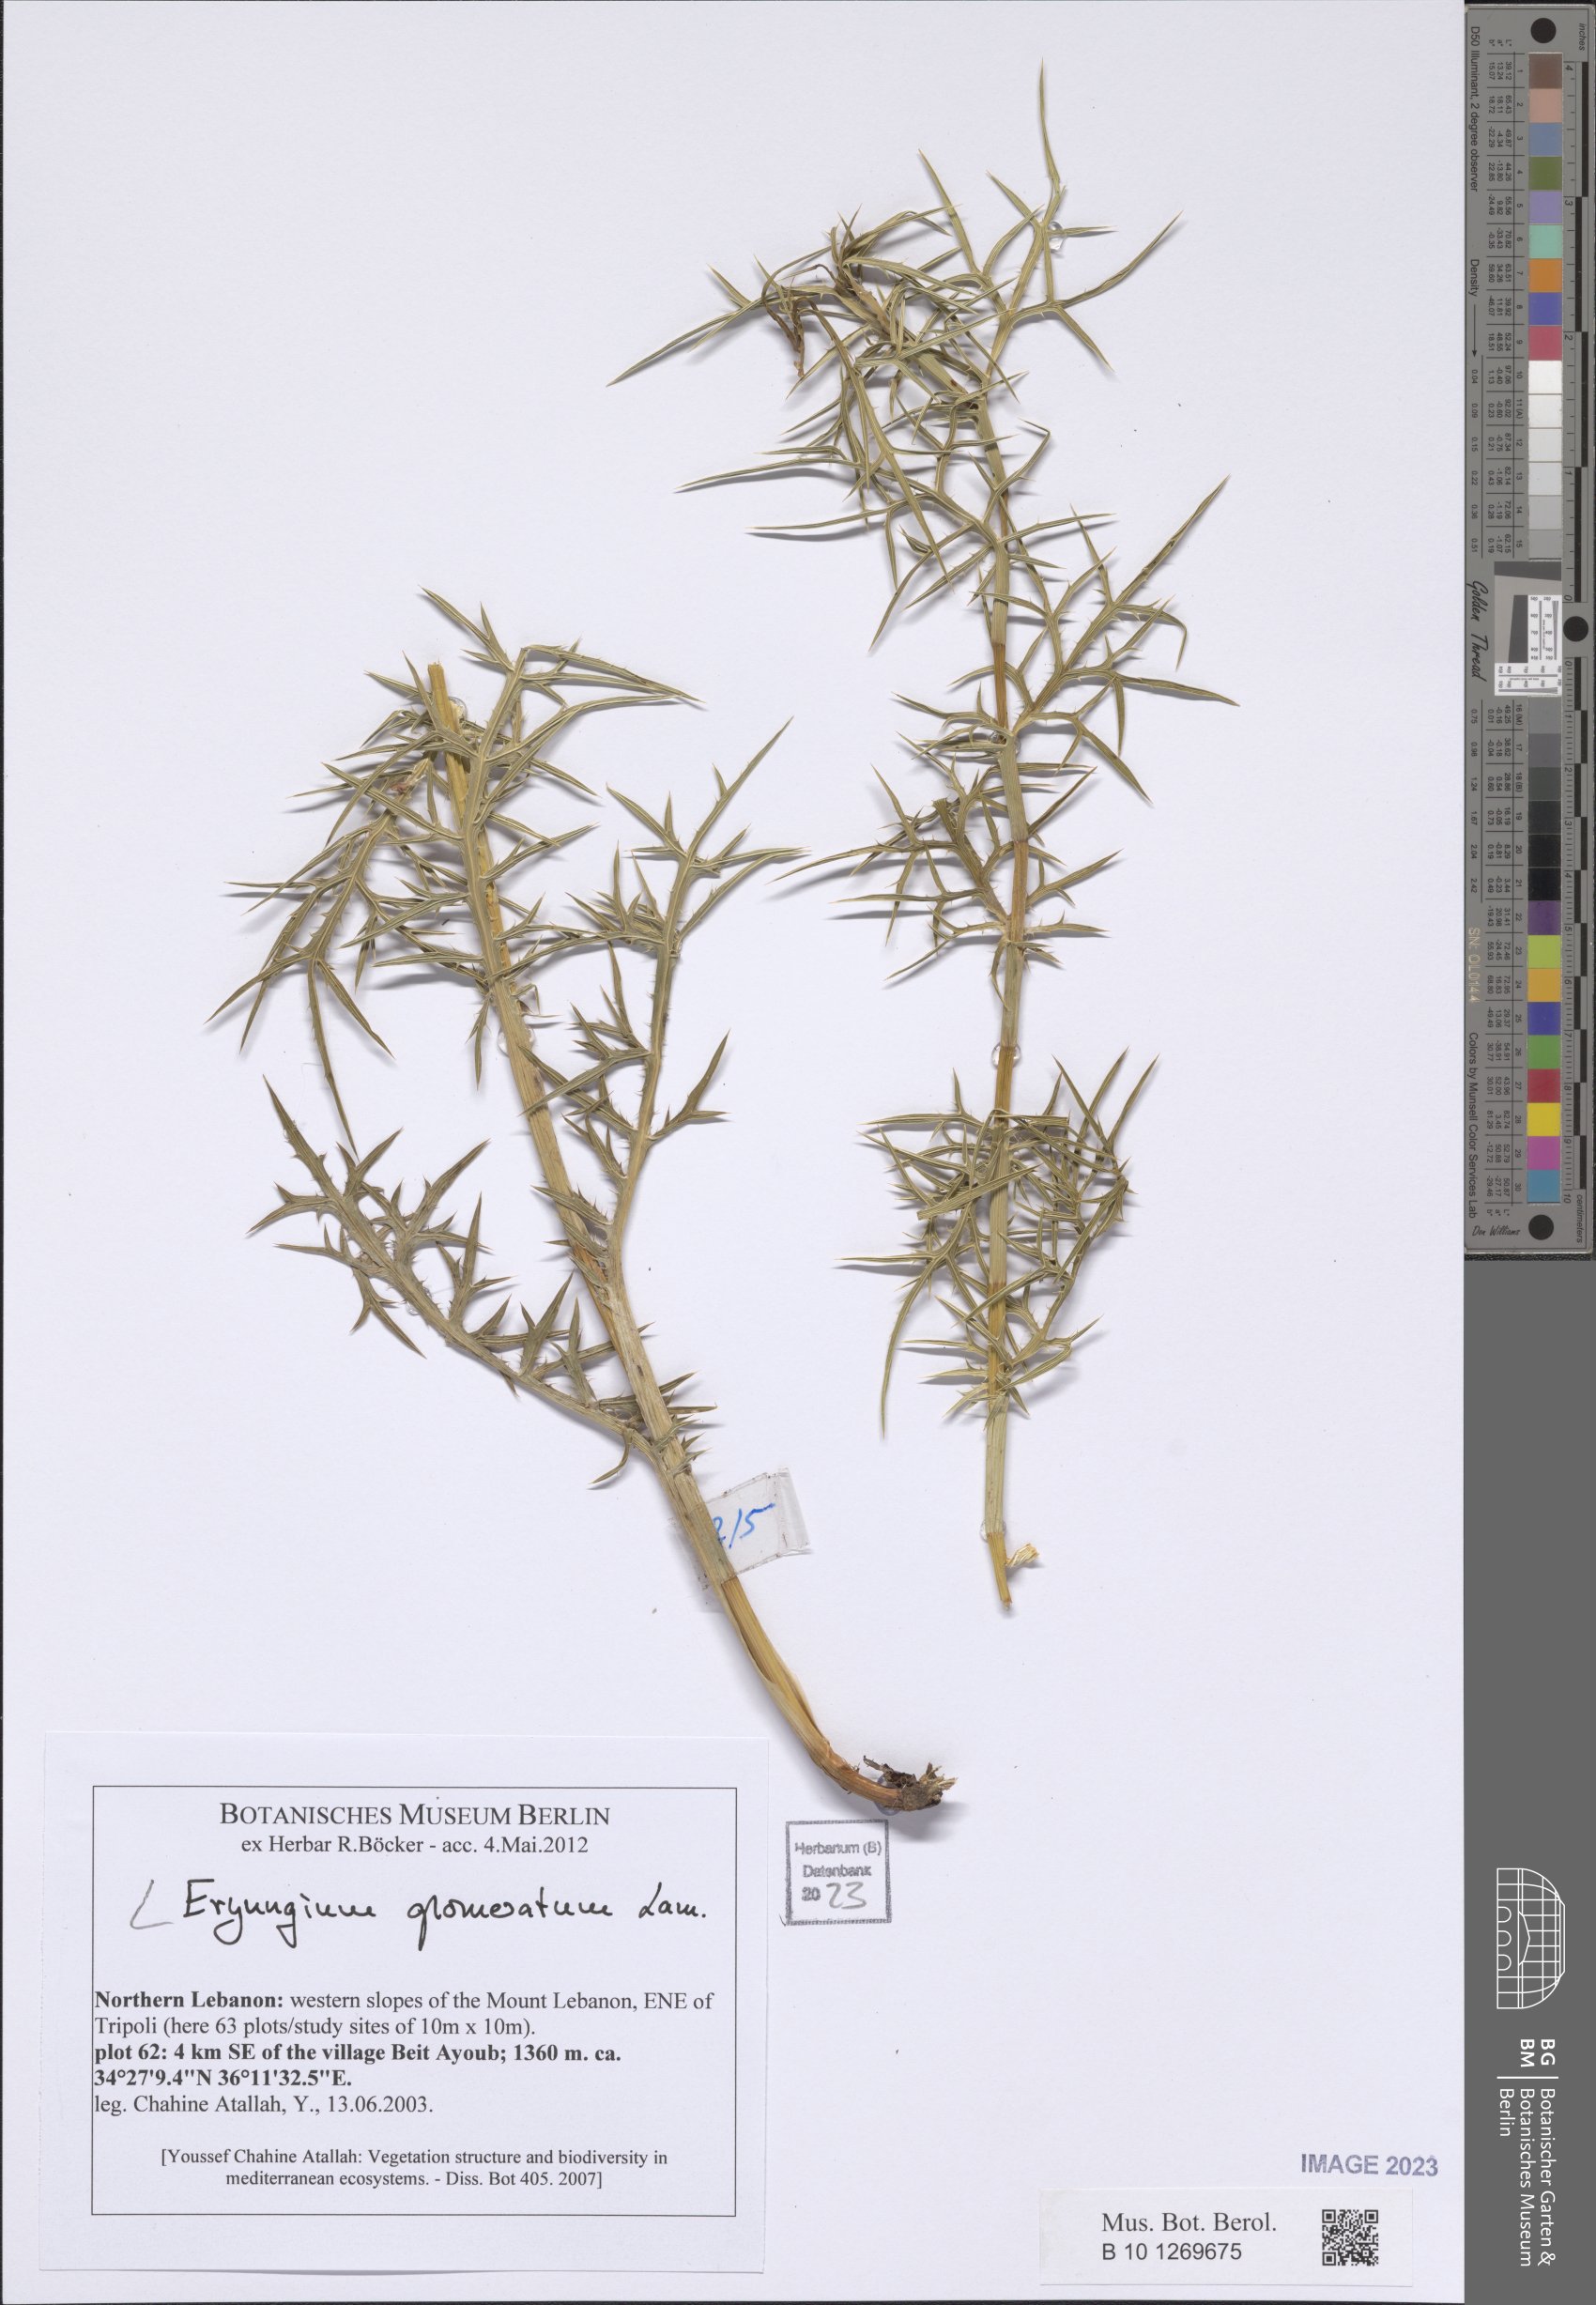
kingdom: Plantae
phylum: Tracheophyta
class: Magnoliopsida
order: Apiales
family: Apiaceae
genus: Eryngium
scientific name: Eryngium glomeratum
